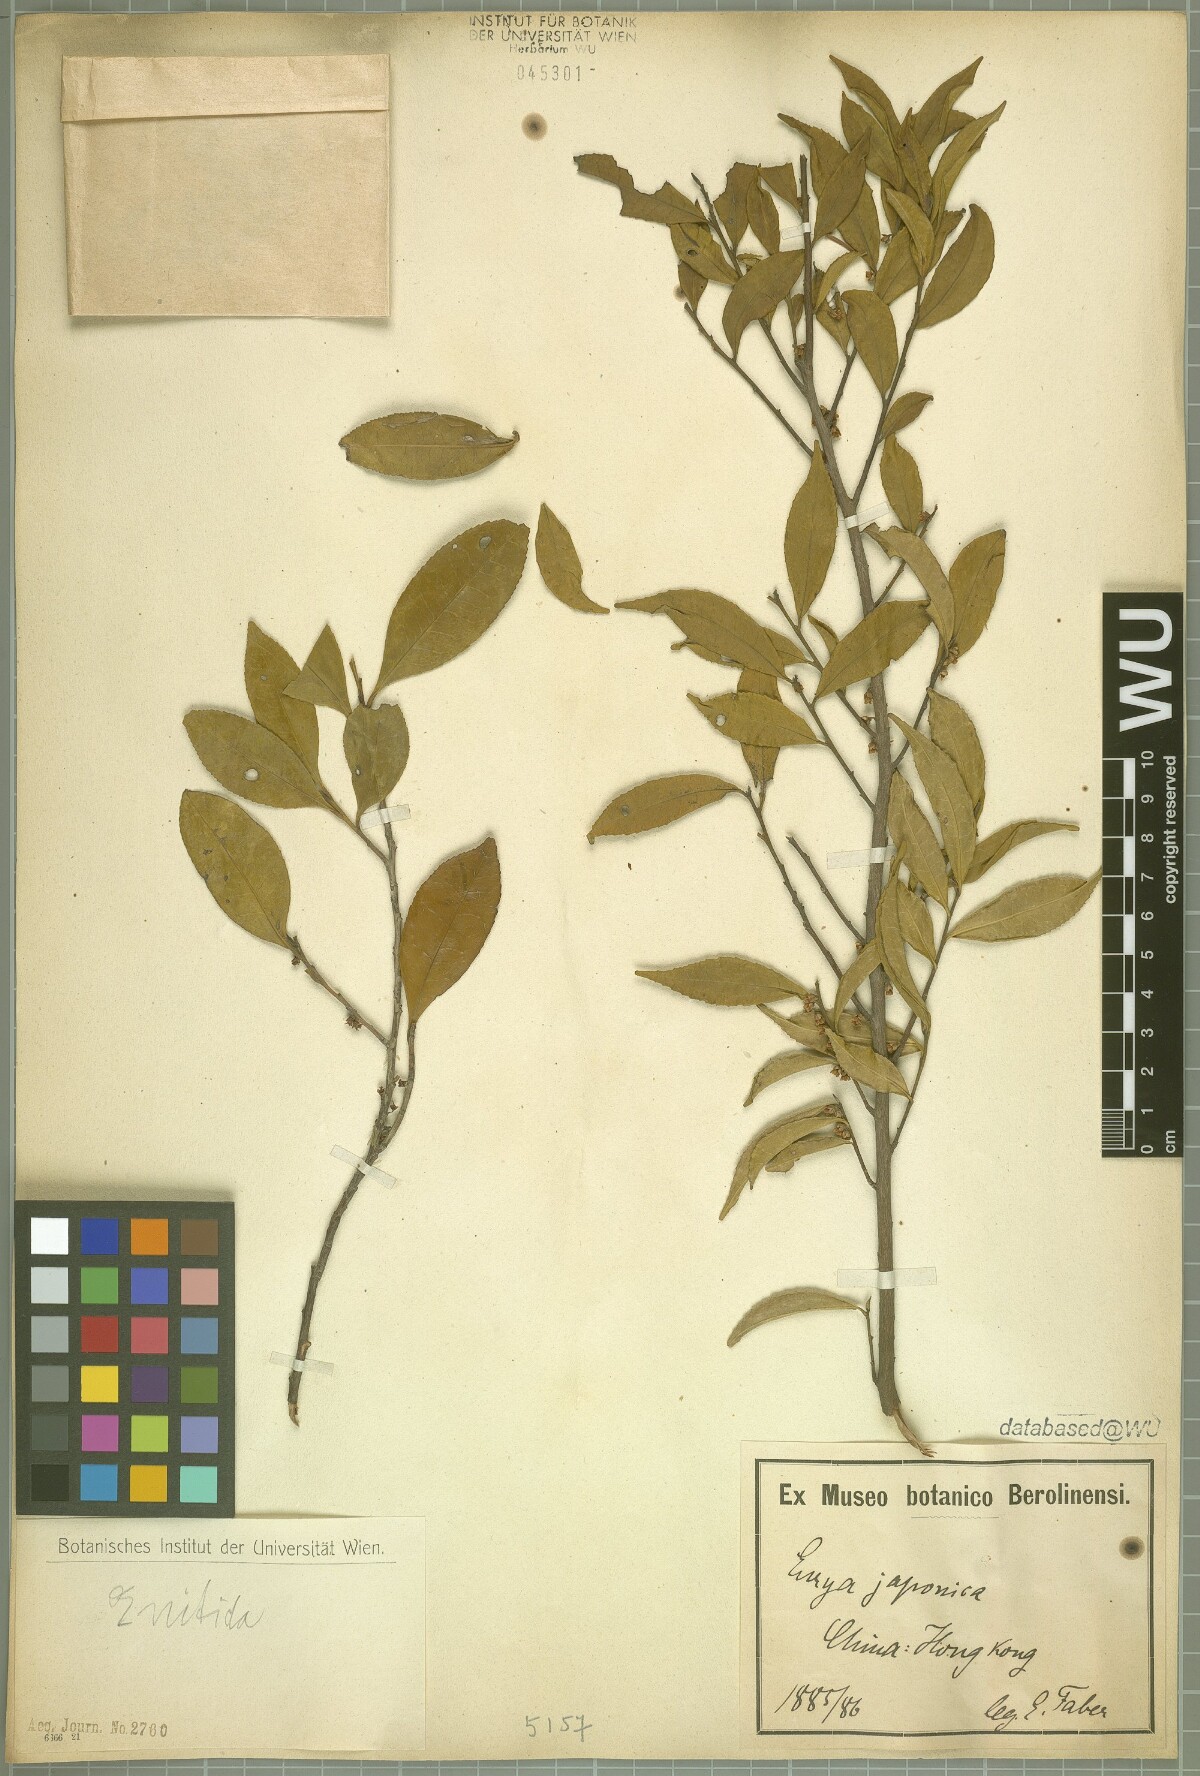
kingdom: Plantae
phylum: Tracheophyta
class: Magnoliopsida
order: Ericales
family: Pentaphylacaceae
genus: Eurya
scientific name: Eurya nitida
